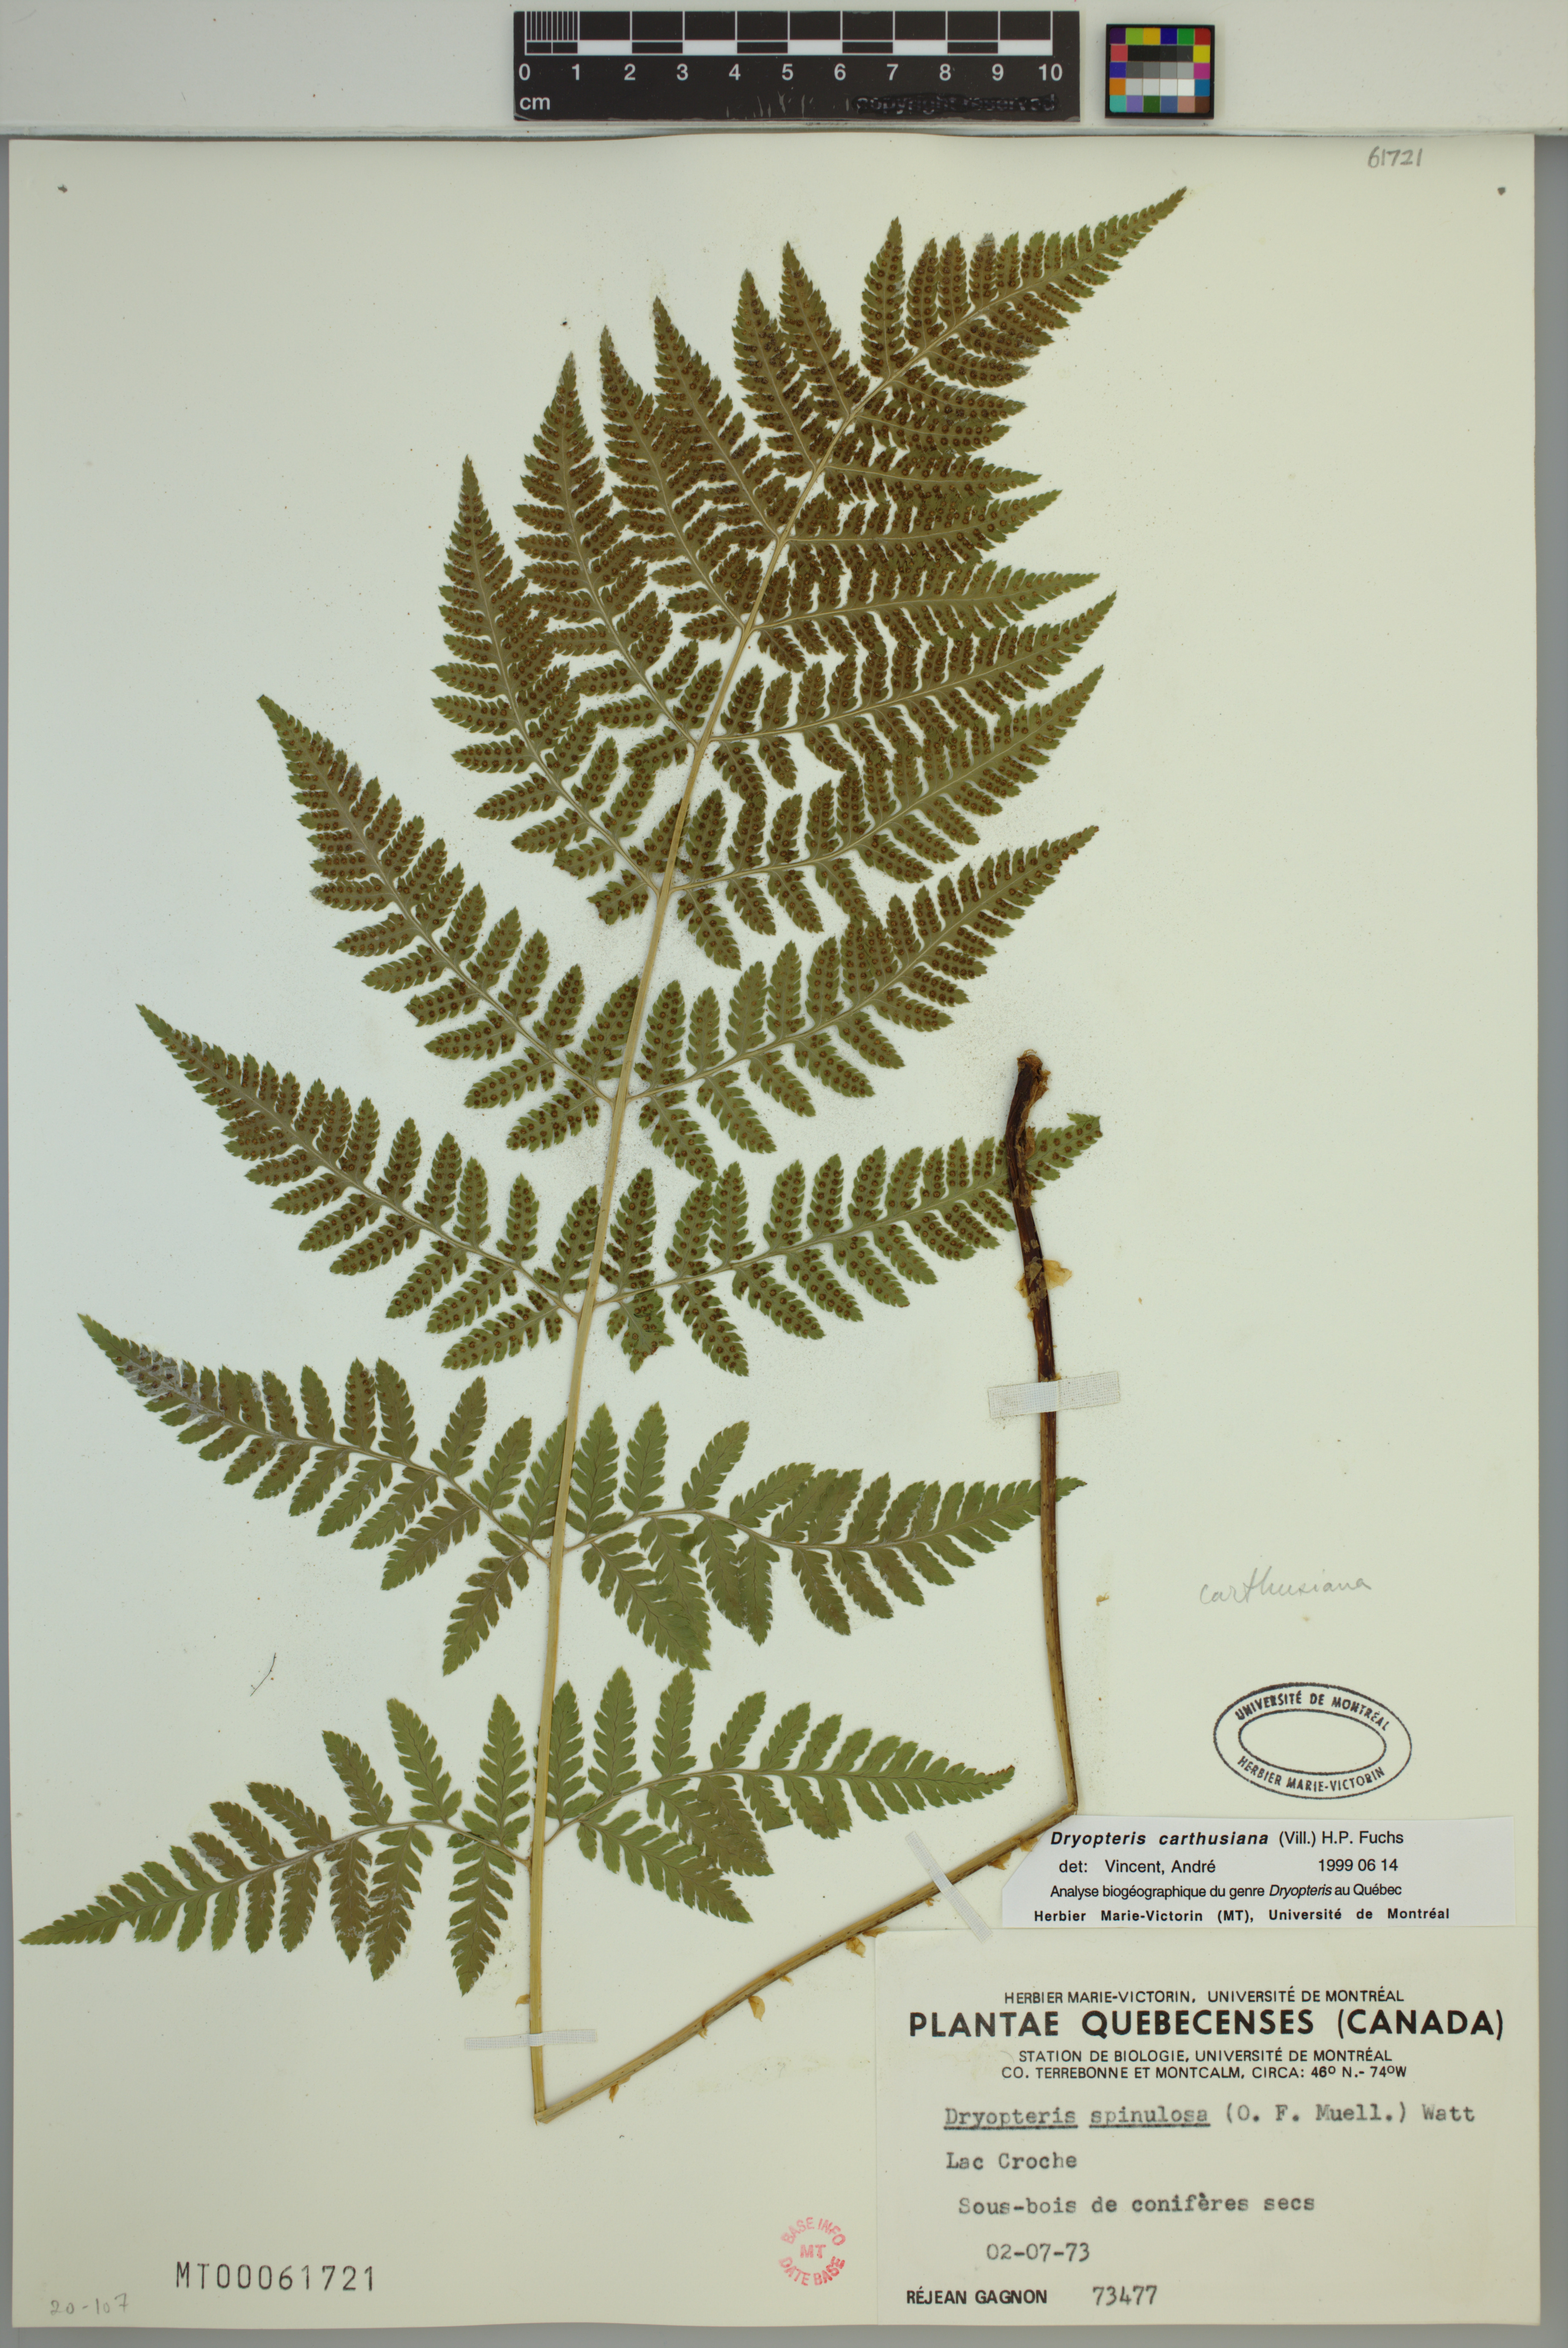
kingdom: Plantae
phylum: Tracheophyta
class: Polypodiopsida
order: Polypodiales
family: Dryopteridaceae
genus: Dryopteris
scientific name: Dryopteris carthusiana
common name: Narrow buckler-fern
